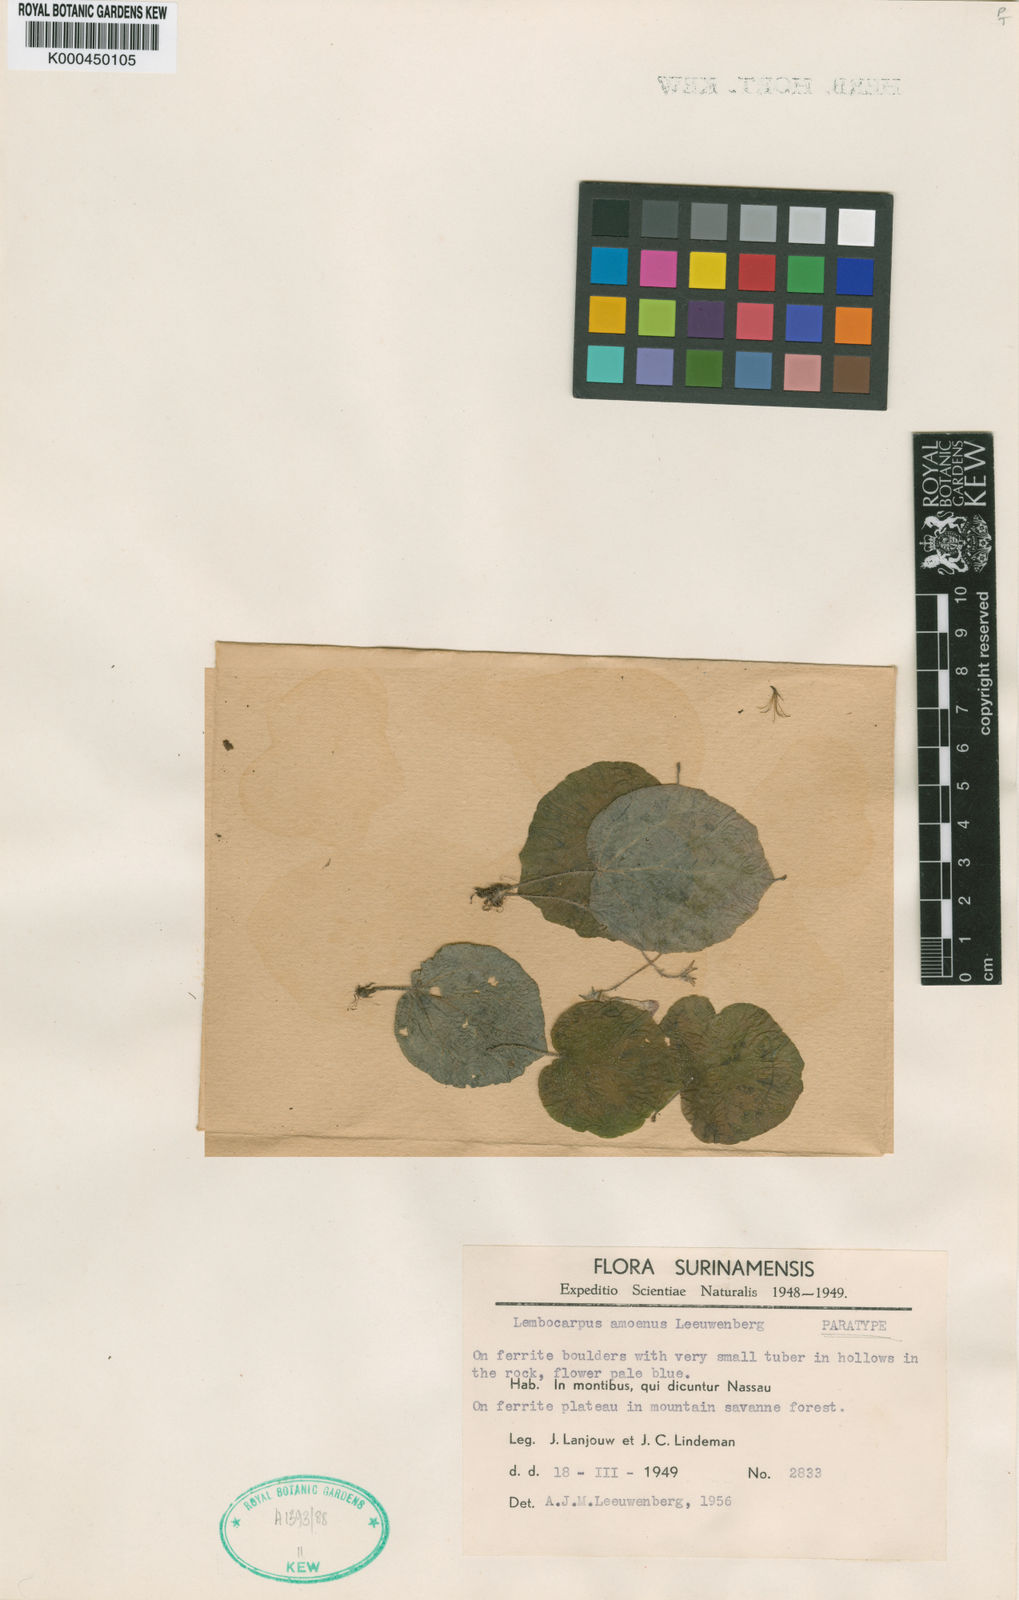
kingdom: Plantae
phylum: Tracheophyta
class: Magnoliopsida
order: Lamiales
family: Gesneriaceae
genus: Lembocarpus
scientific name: Lembocarpus amoenus
